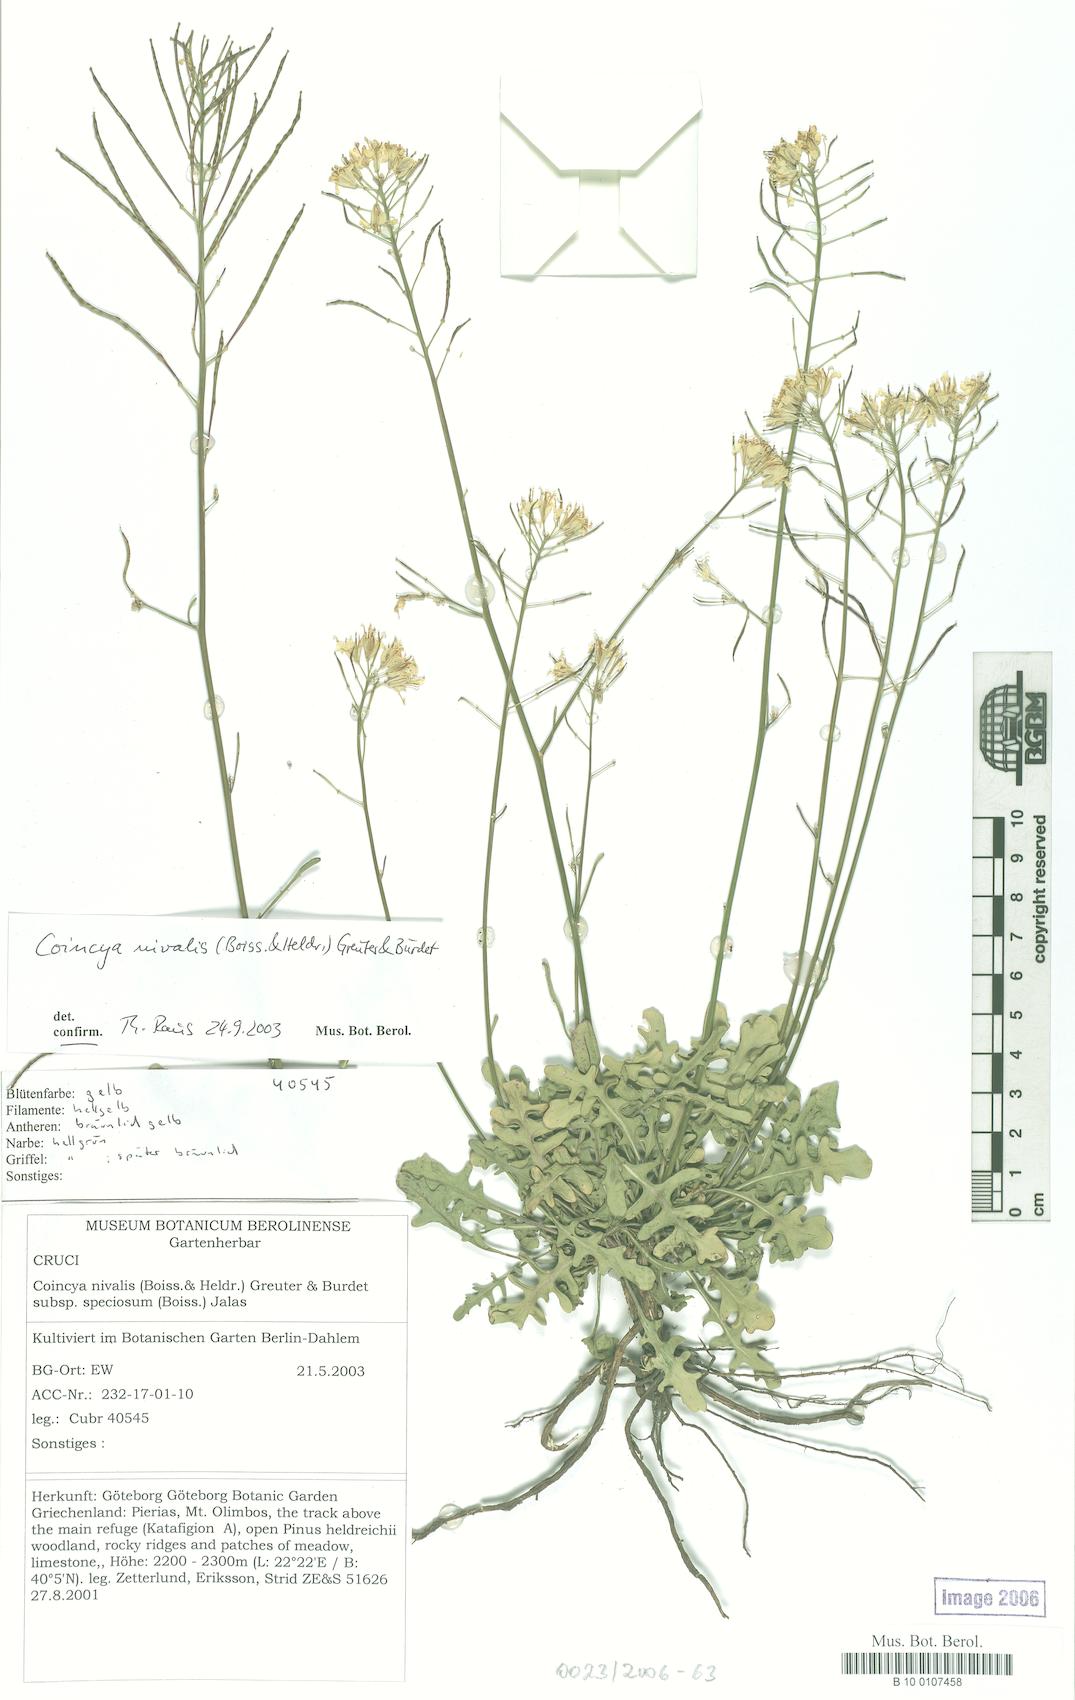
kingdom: Plantae
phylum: Tracheophyta
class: Magnoliopsida
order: Brassicales
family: Brassicaceae
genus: Brassica
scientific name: Brassica nivalis
